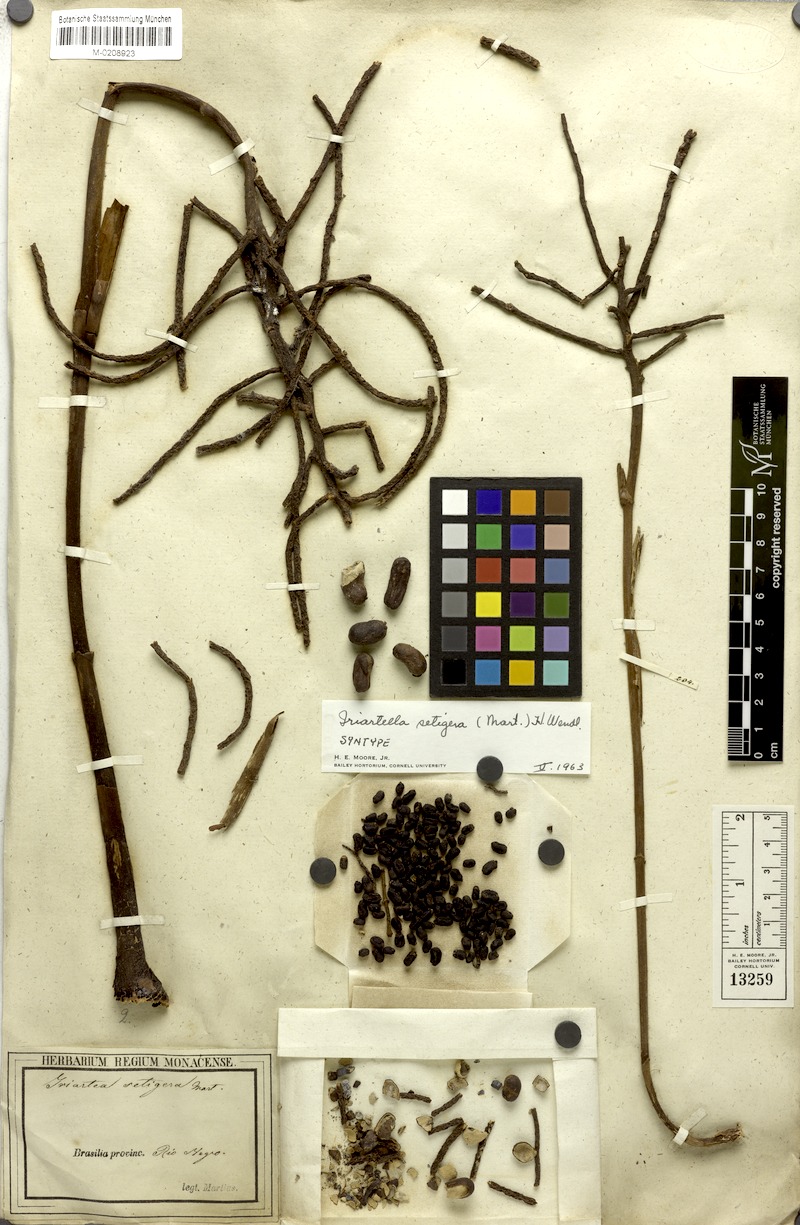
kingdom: Plantae
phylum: Tracheophyta
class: Liliopsida
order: Arecales
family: Arecaceae
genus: Iriartella
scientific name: Iriartella setigera
